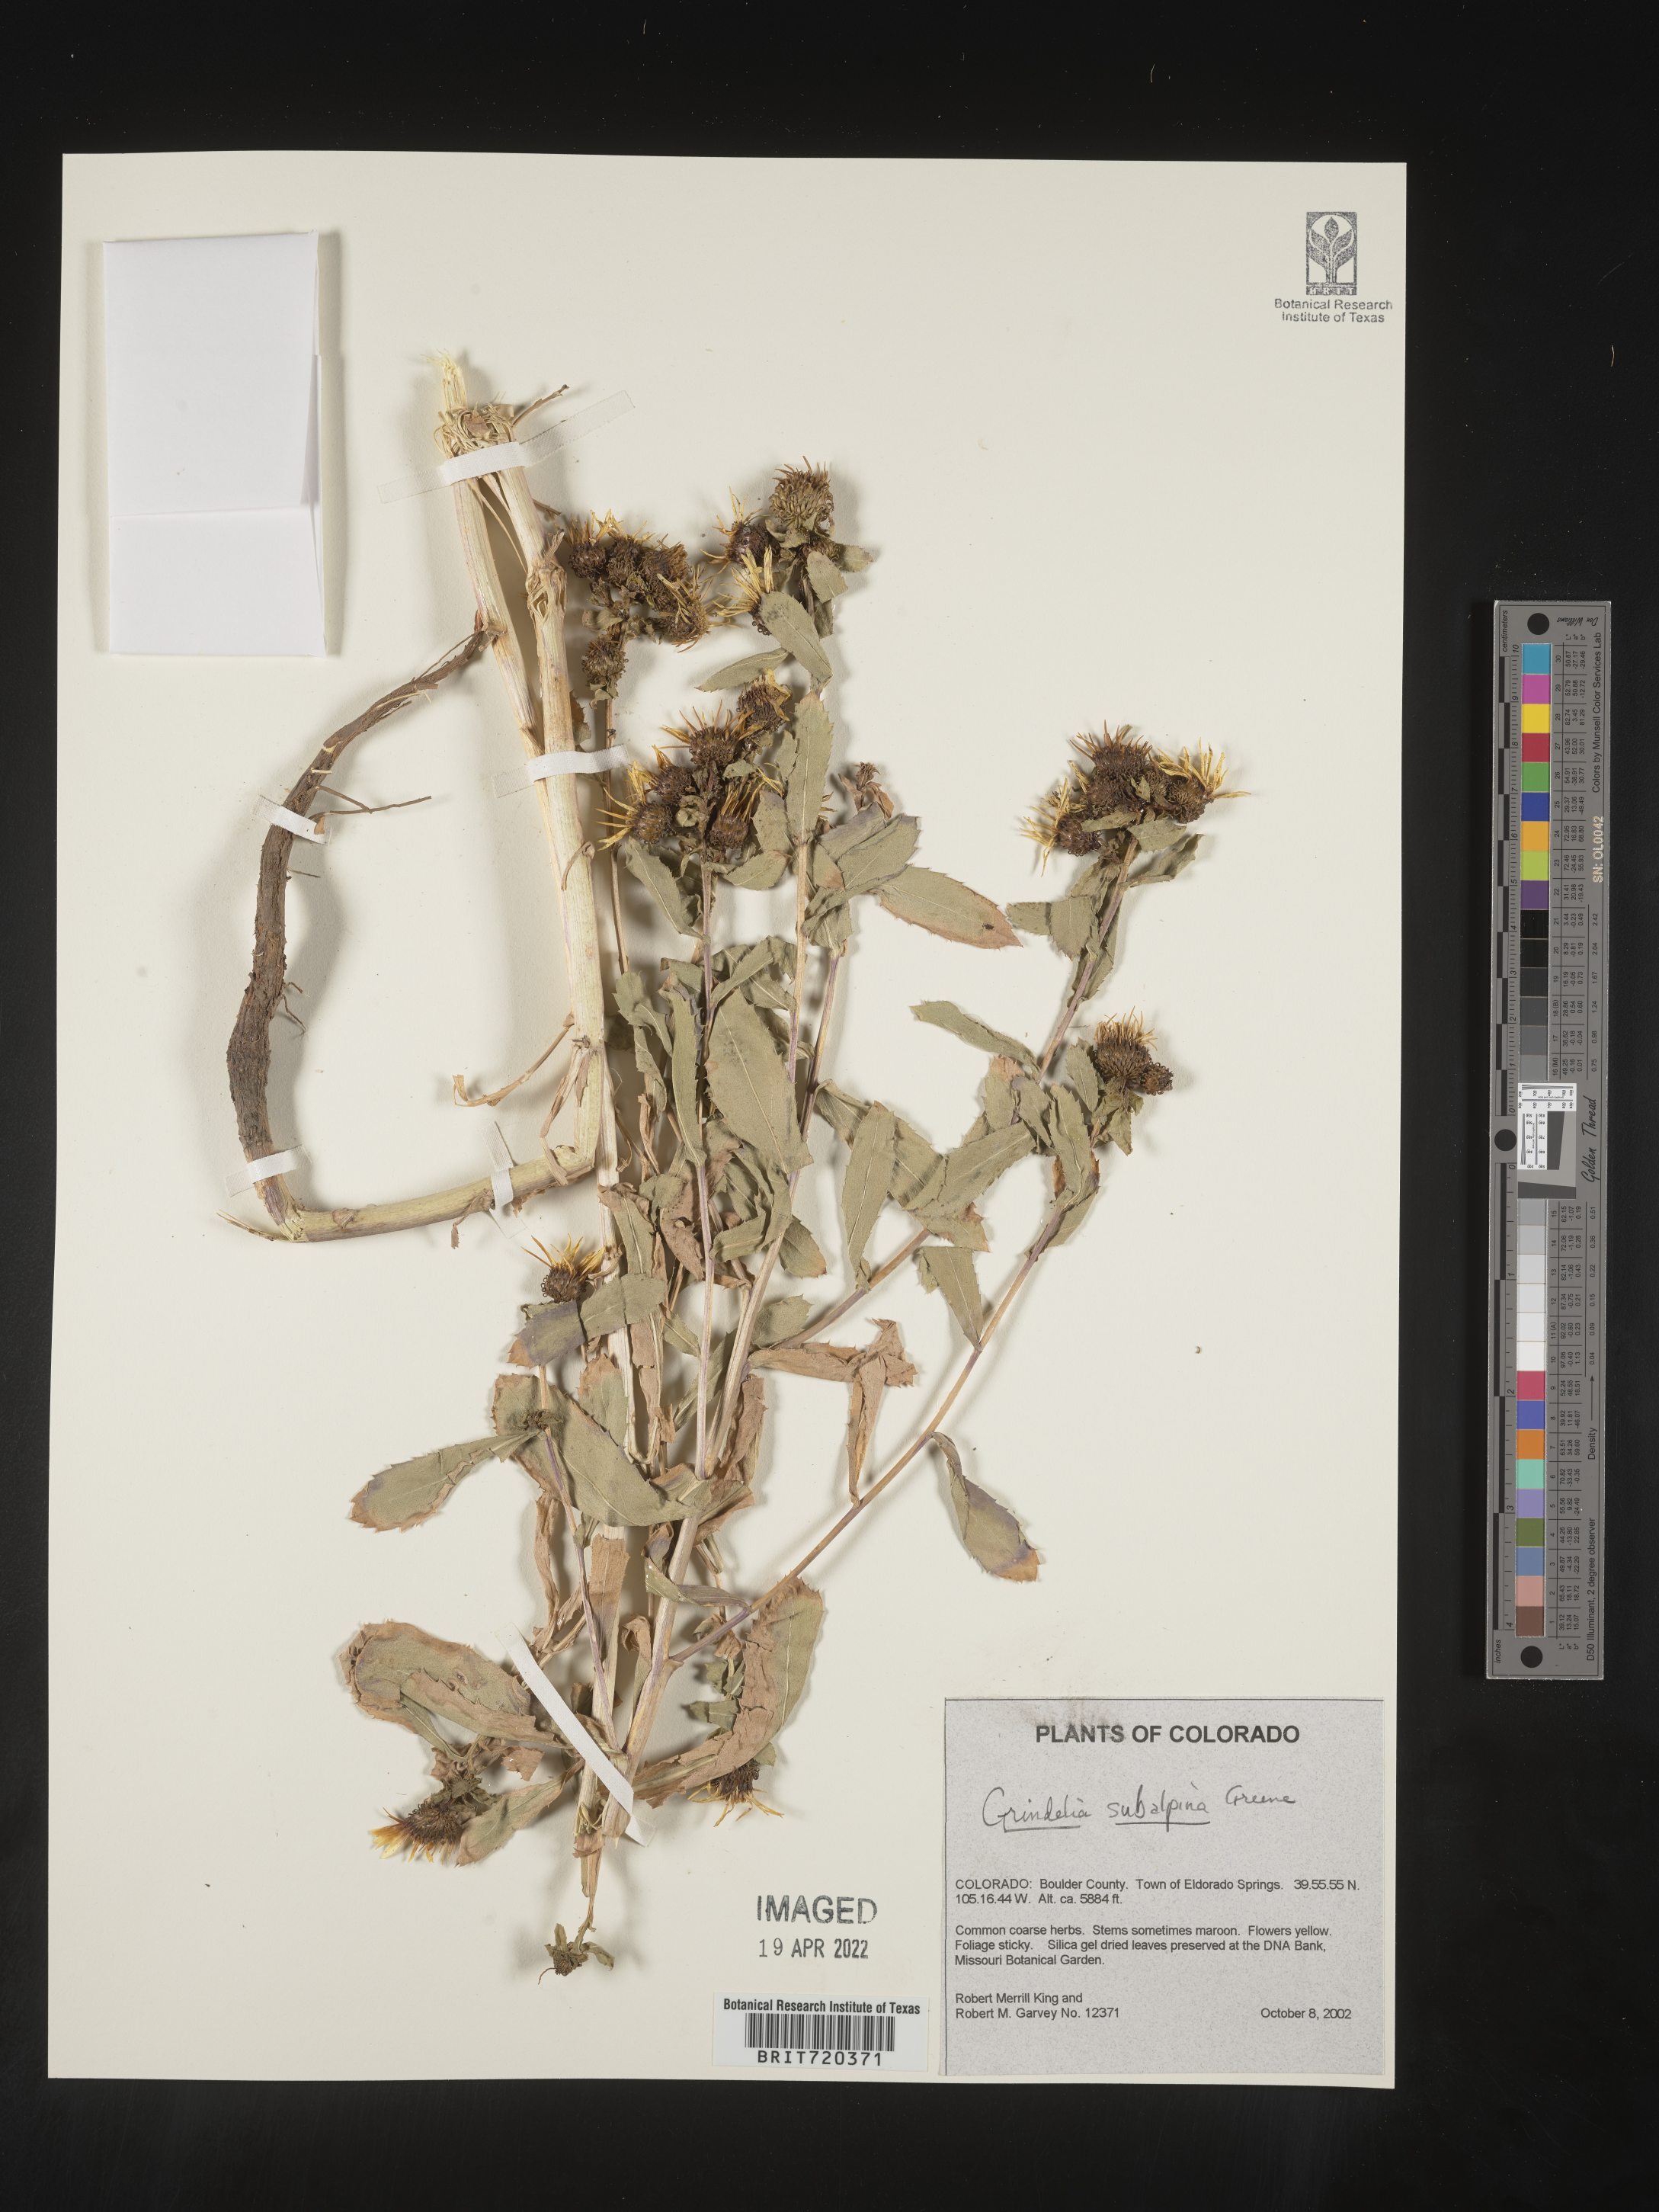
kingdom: Plantae
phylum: Tracheophyta
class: Magnoliopsida
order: Asterales
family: Asteraceae
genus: Grindelia
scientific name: Grindelia subalpina
